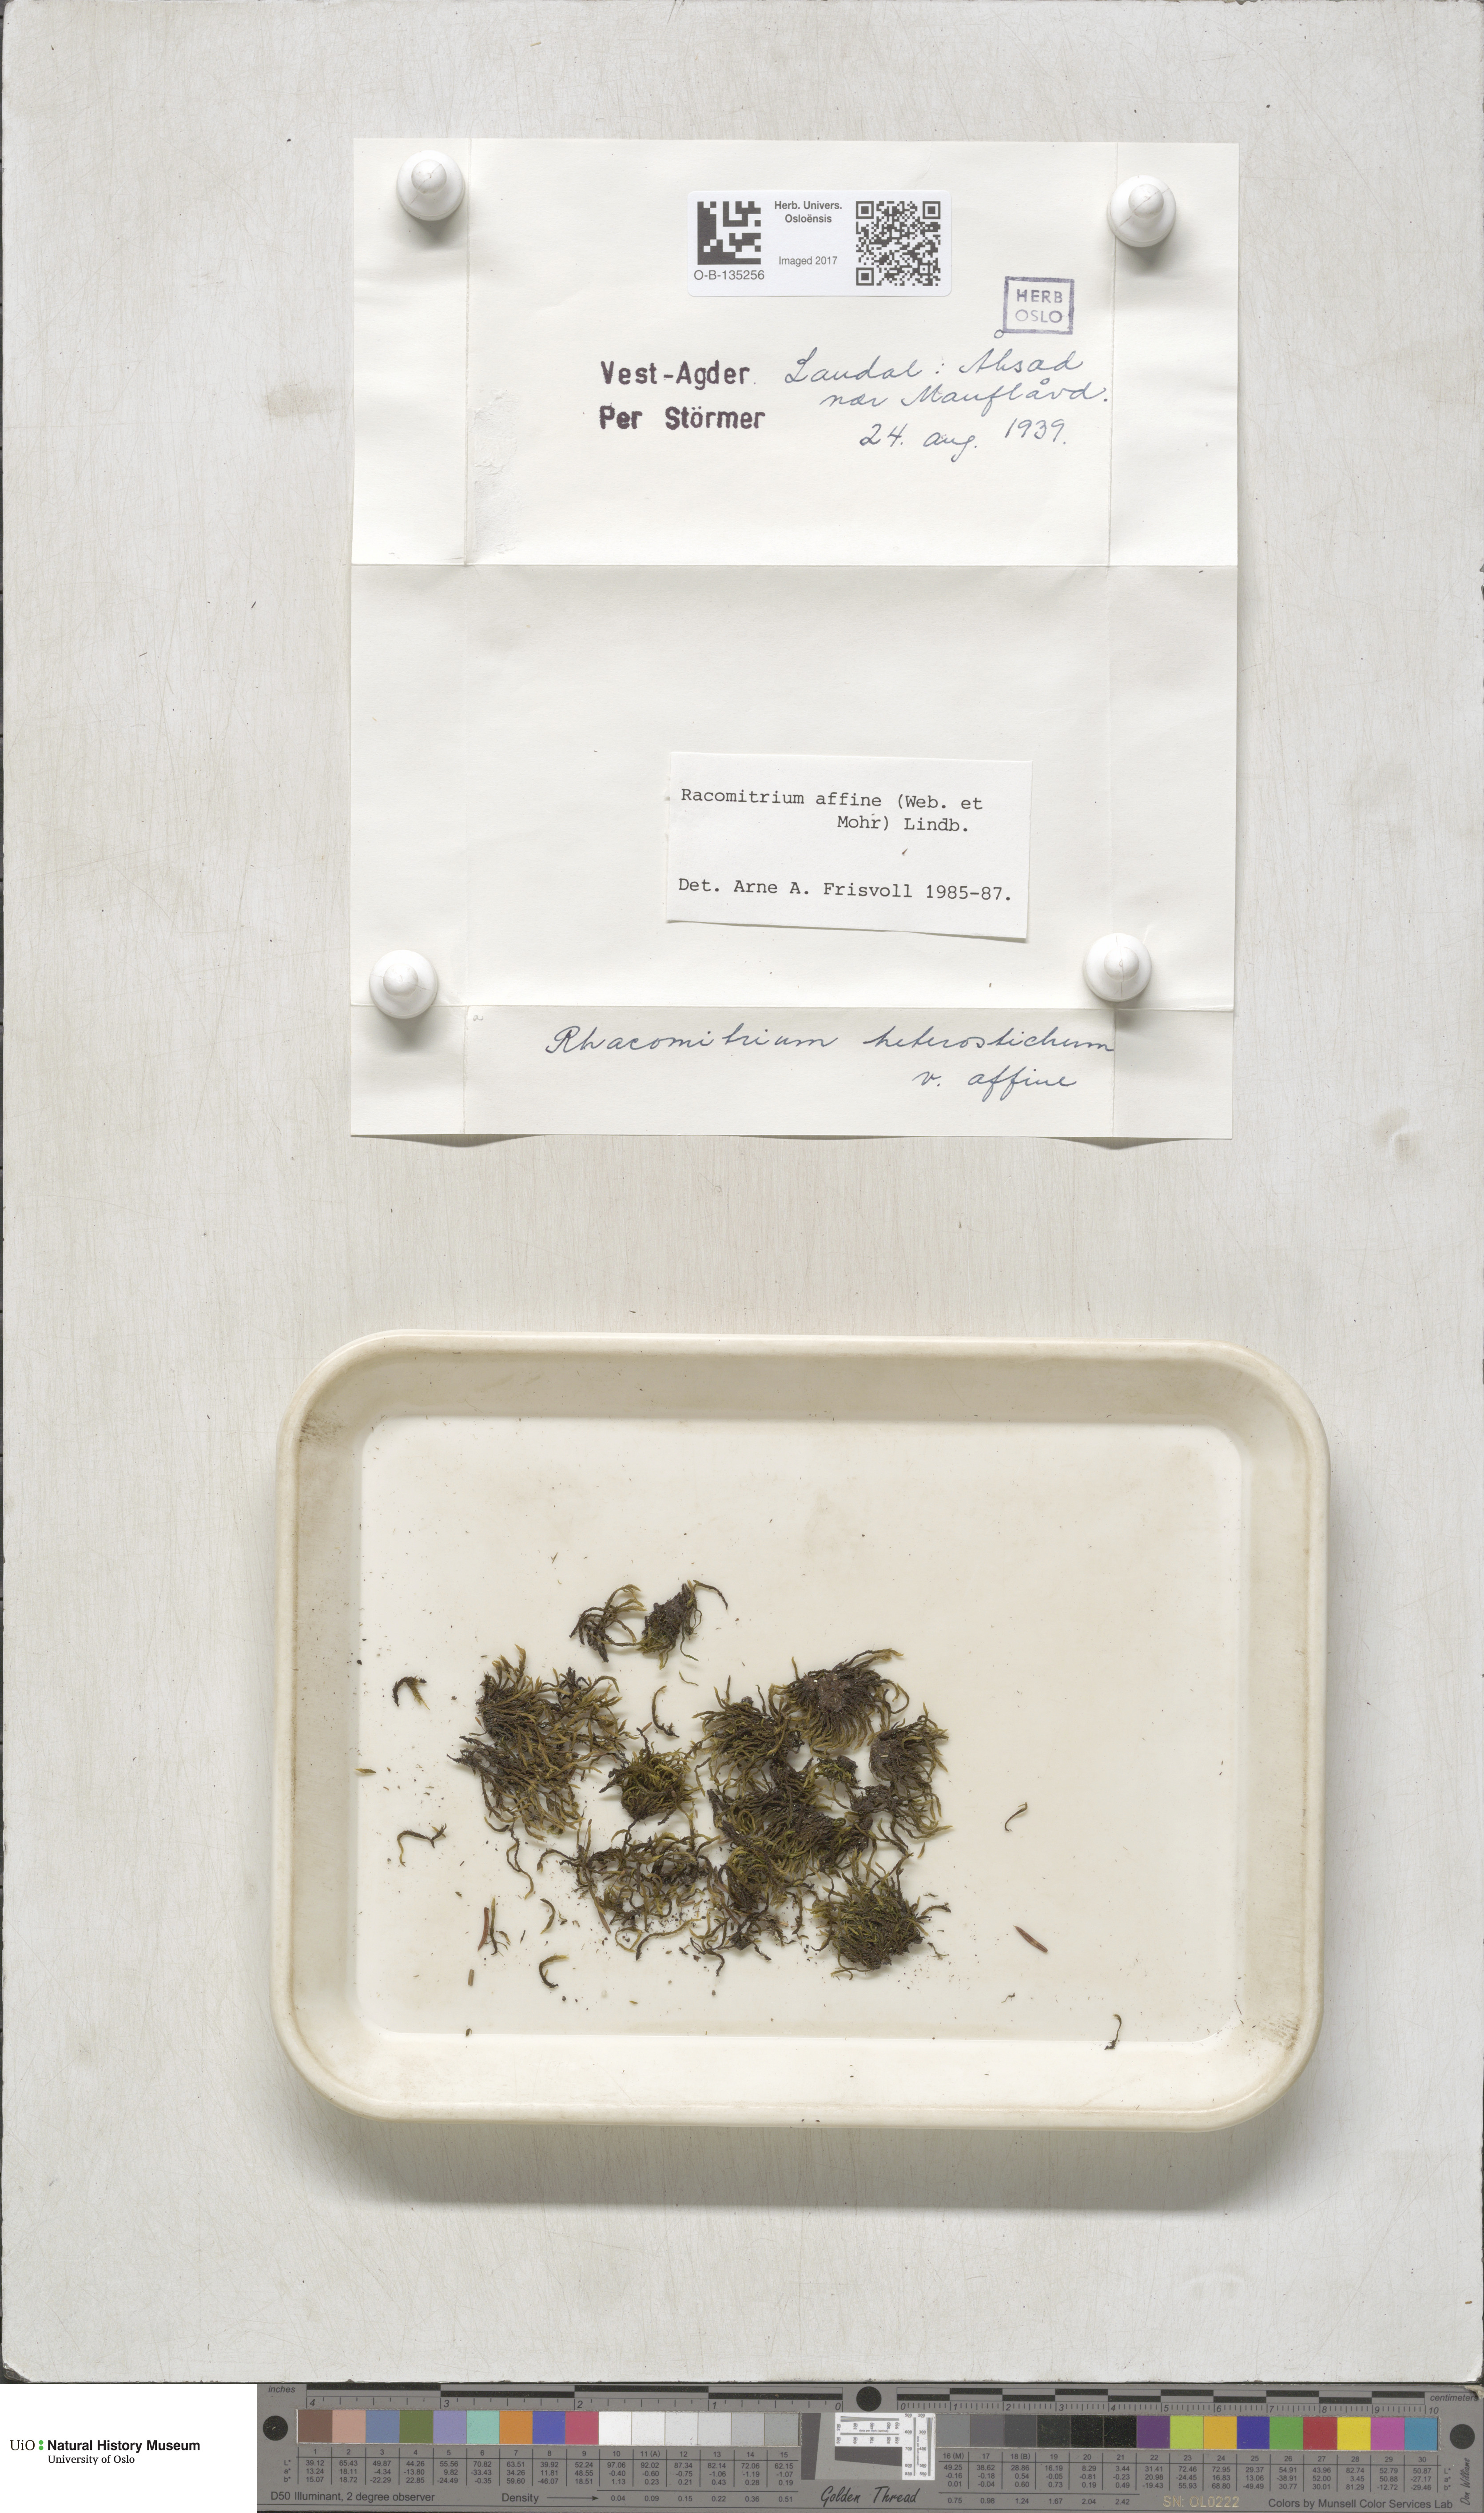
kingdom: Plantae
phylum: Bryophyta
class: Bryopsida
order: Grimmiales
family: Grimmiaceae
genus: Bucklandiella
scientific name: Bucklandiella affinis
